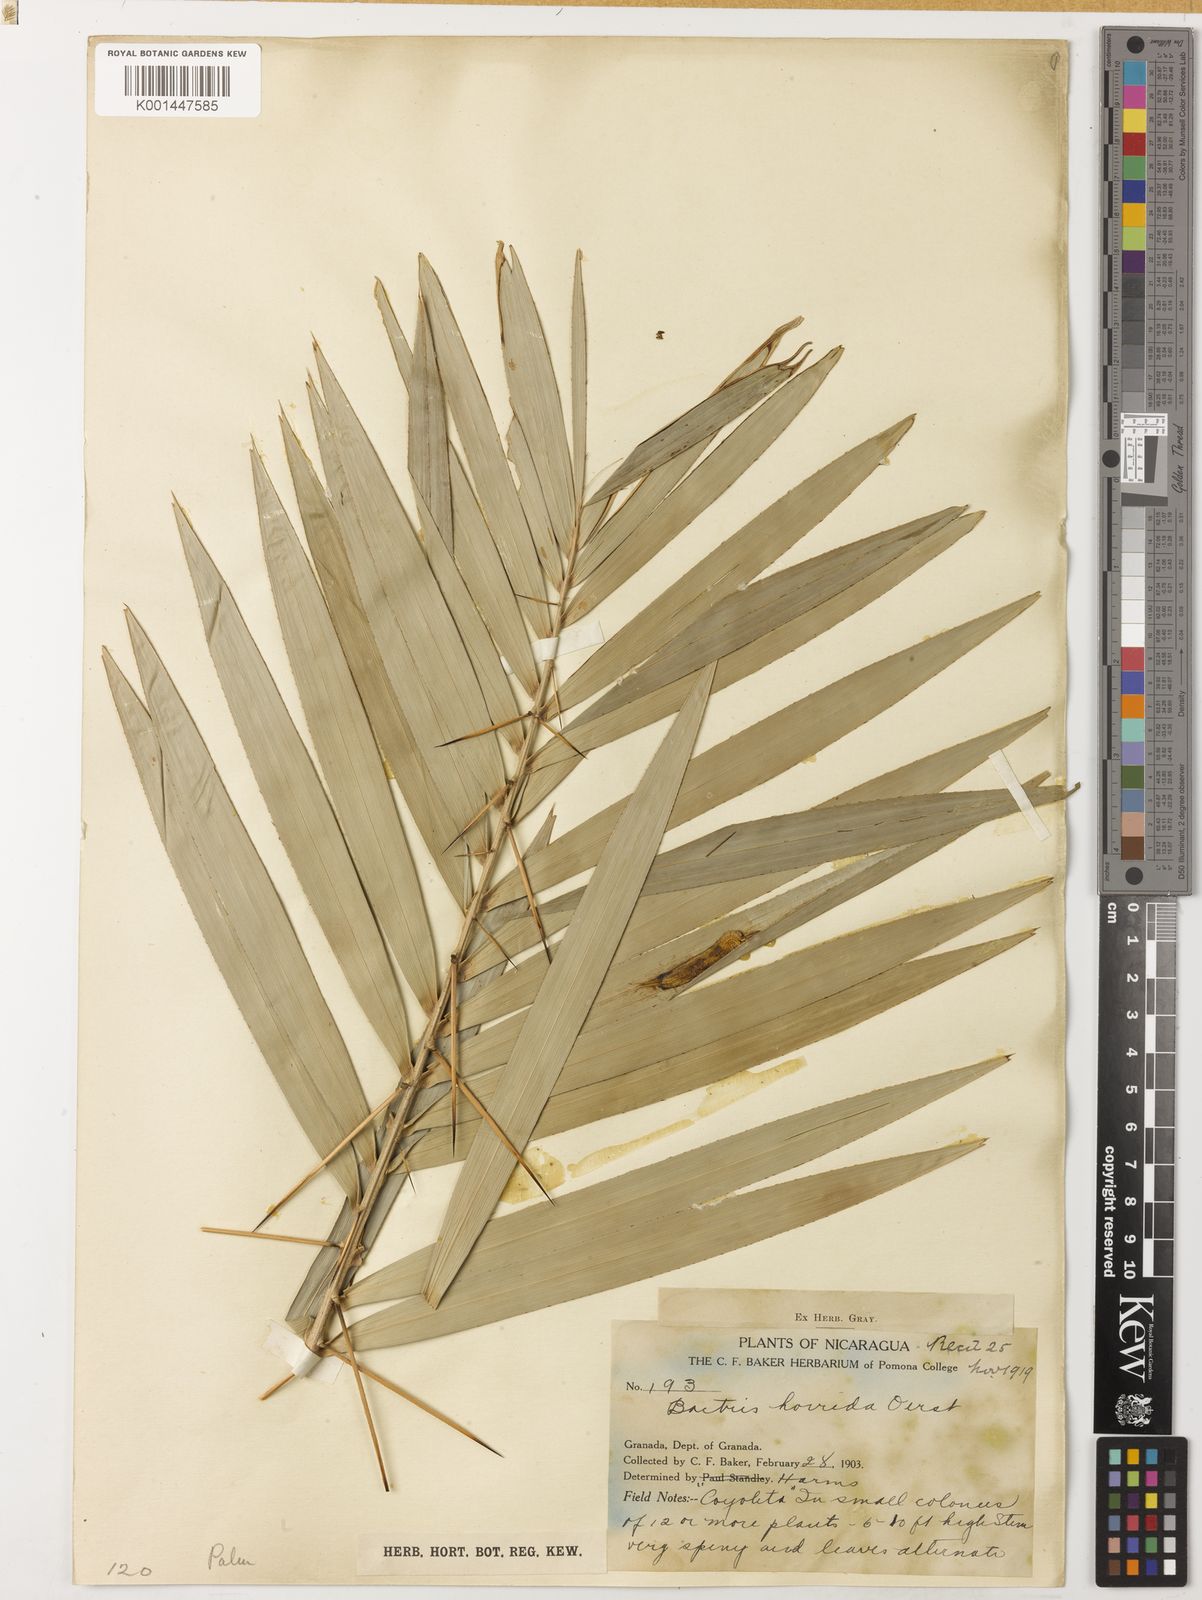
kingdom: Plantae
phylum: Tracheophyta
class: Liliopsida
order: Arecales
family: Arecaceae
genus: Bactris
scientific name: Bactris guineensis
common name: Tobago cane
